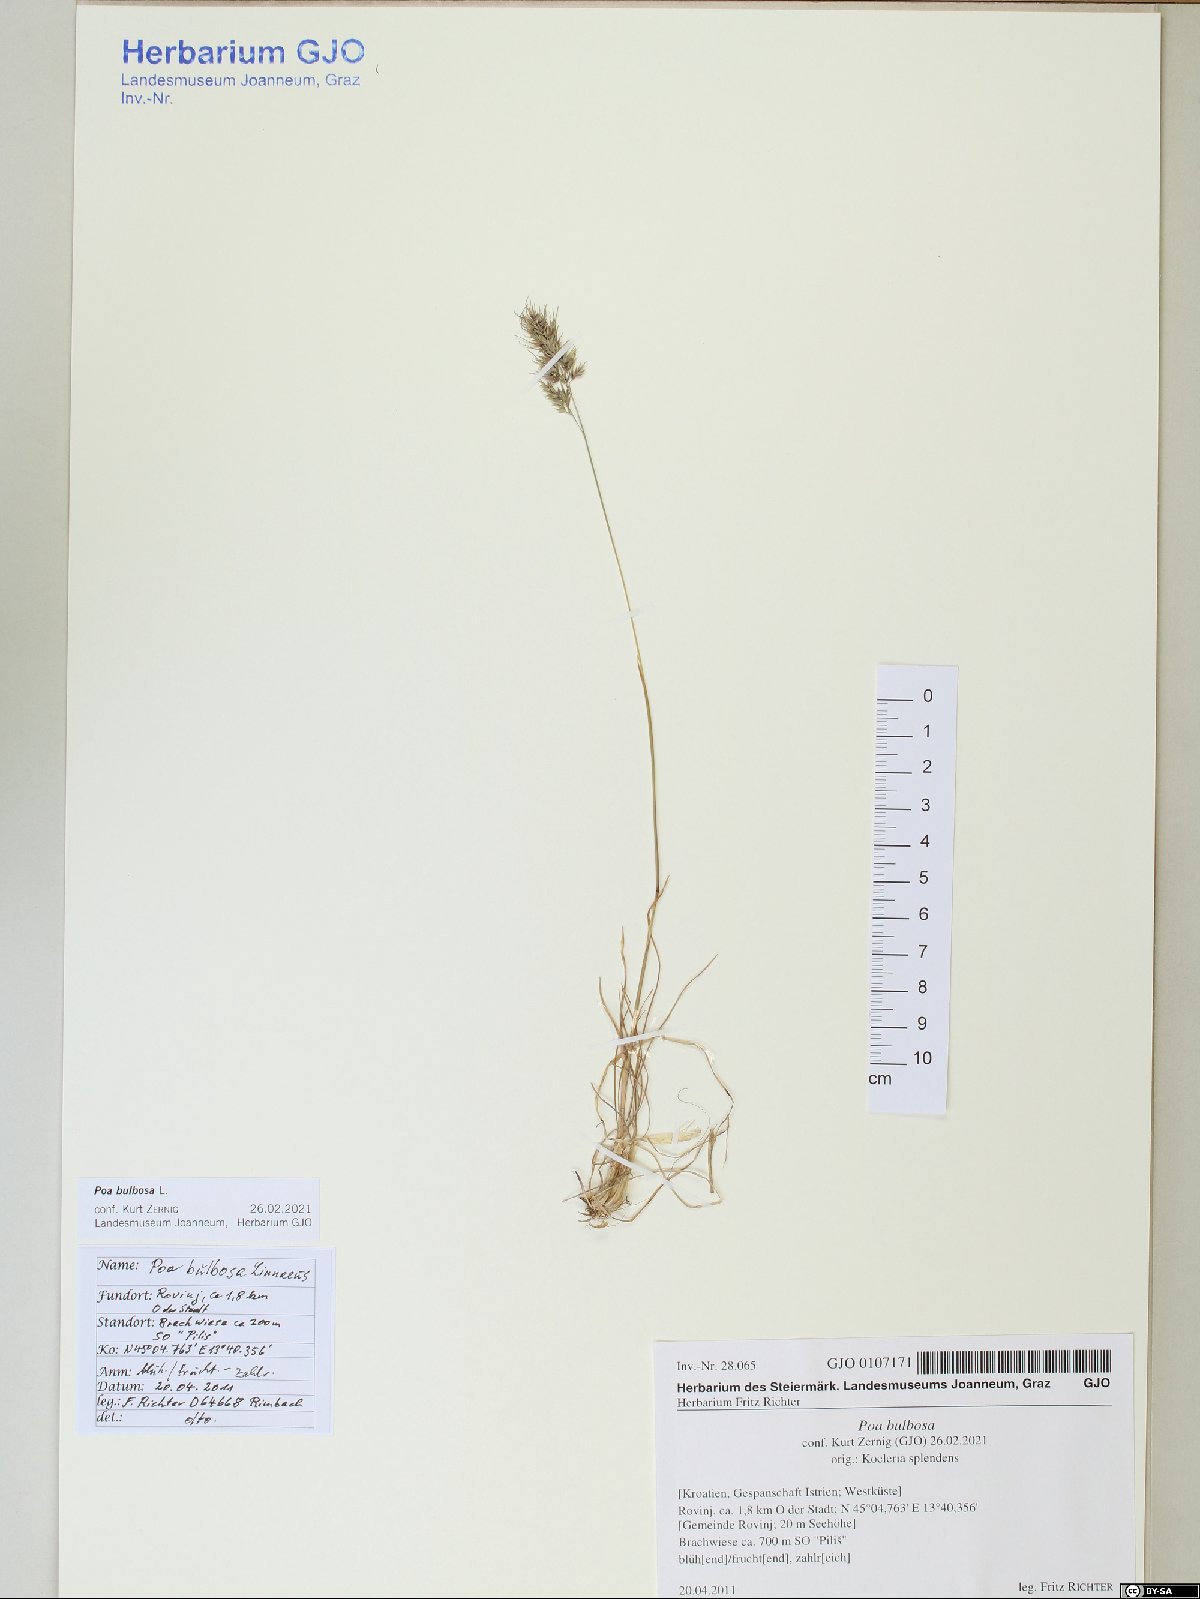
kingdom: Plantae
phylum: Tracheophyta
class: Liliopsida
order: Poales
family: Poaceae
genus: Poa
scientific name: Poa bulbosa
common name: Bulbous bluegrass
